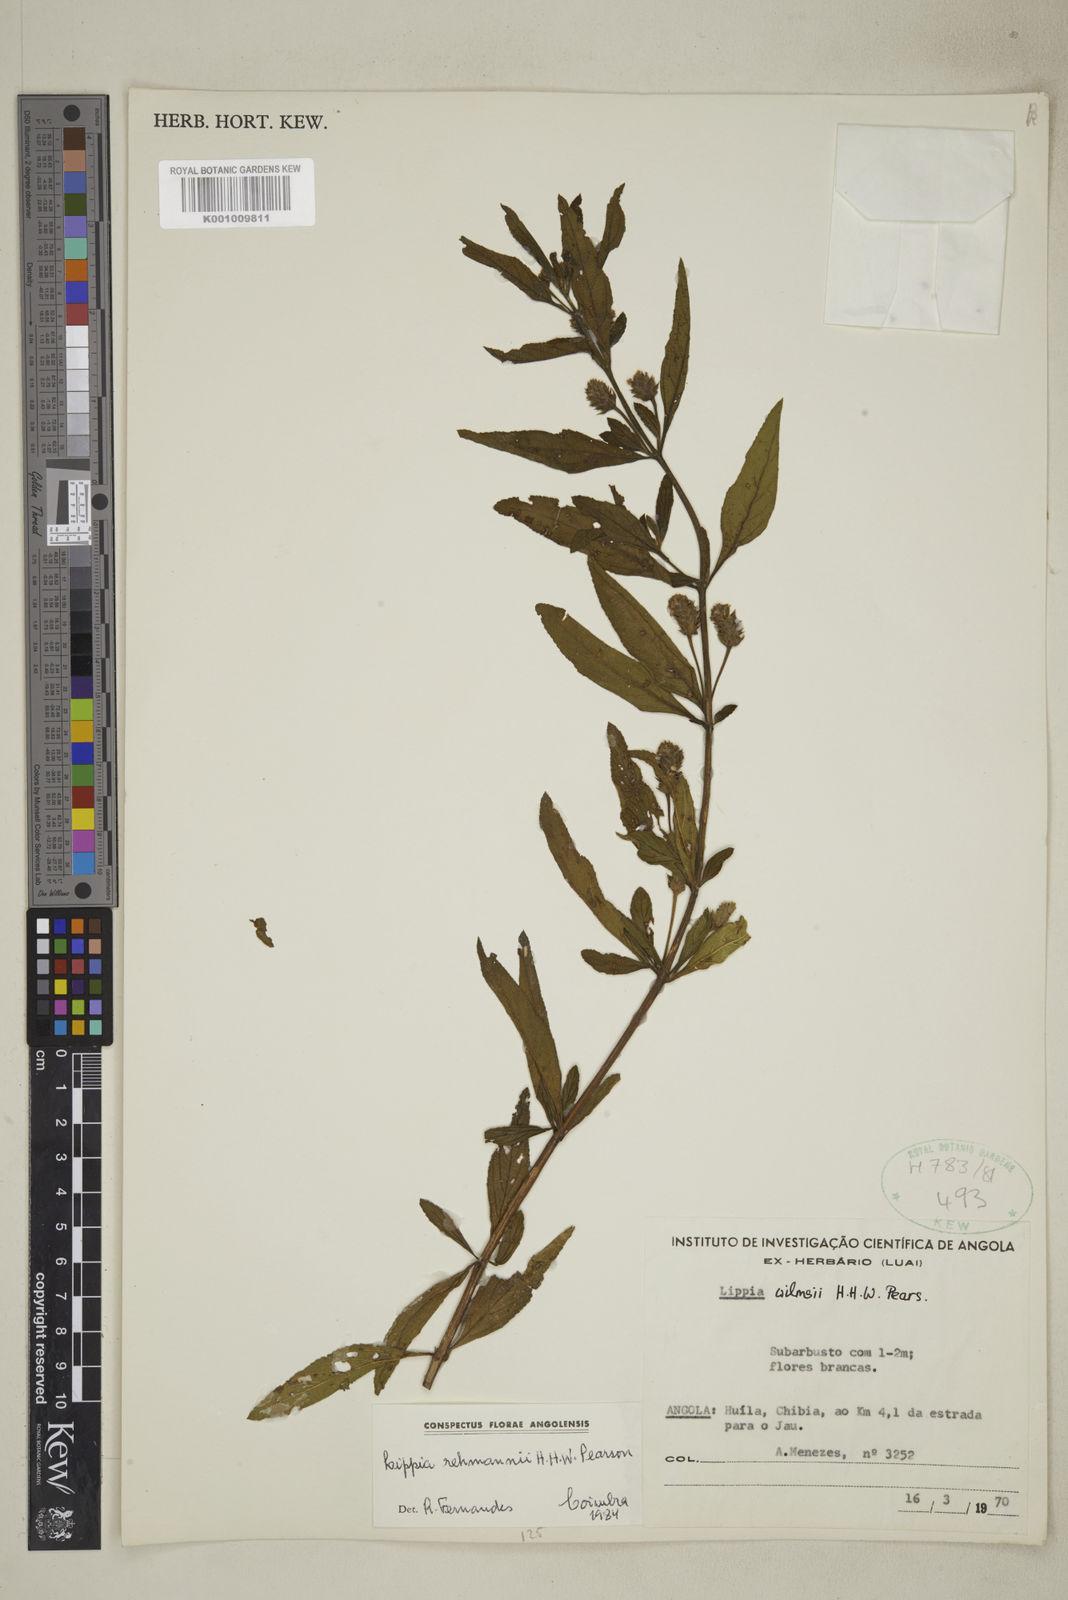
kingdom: Plantae
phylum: Tracheophyta
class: Magnoliopsida
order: Lamiales
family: Verbenaceae
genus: Lippia
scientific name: Lippia rehmannii
